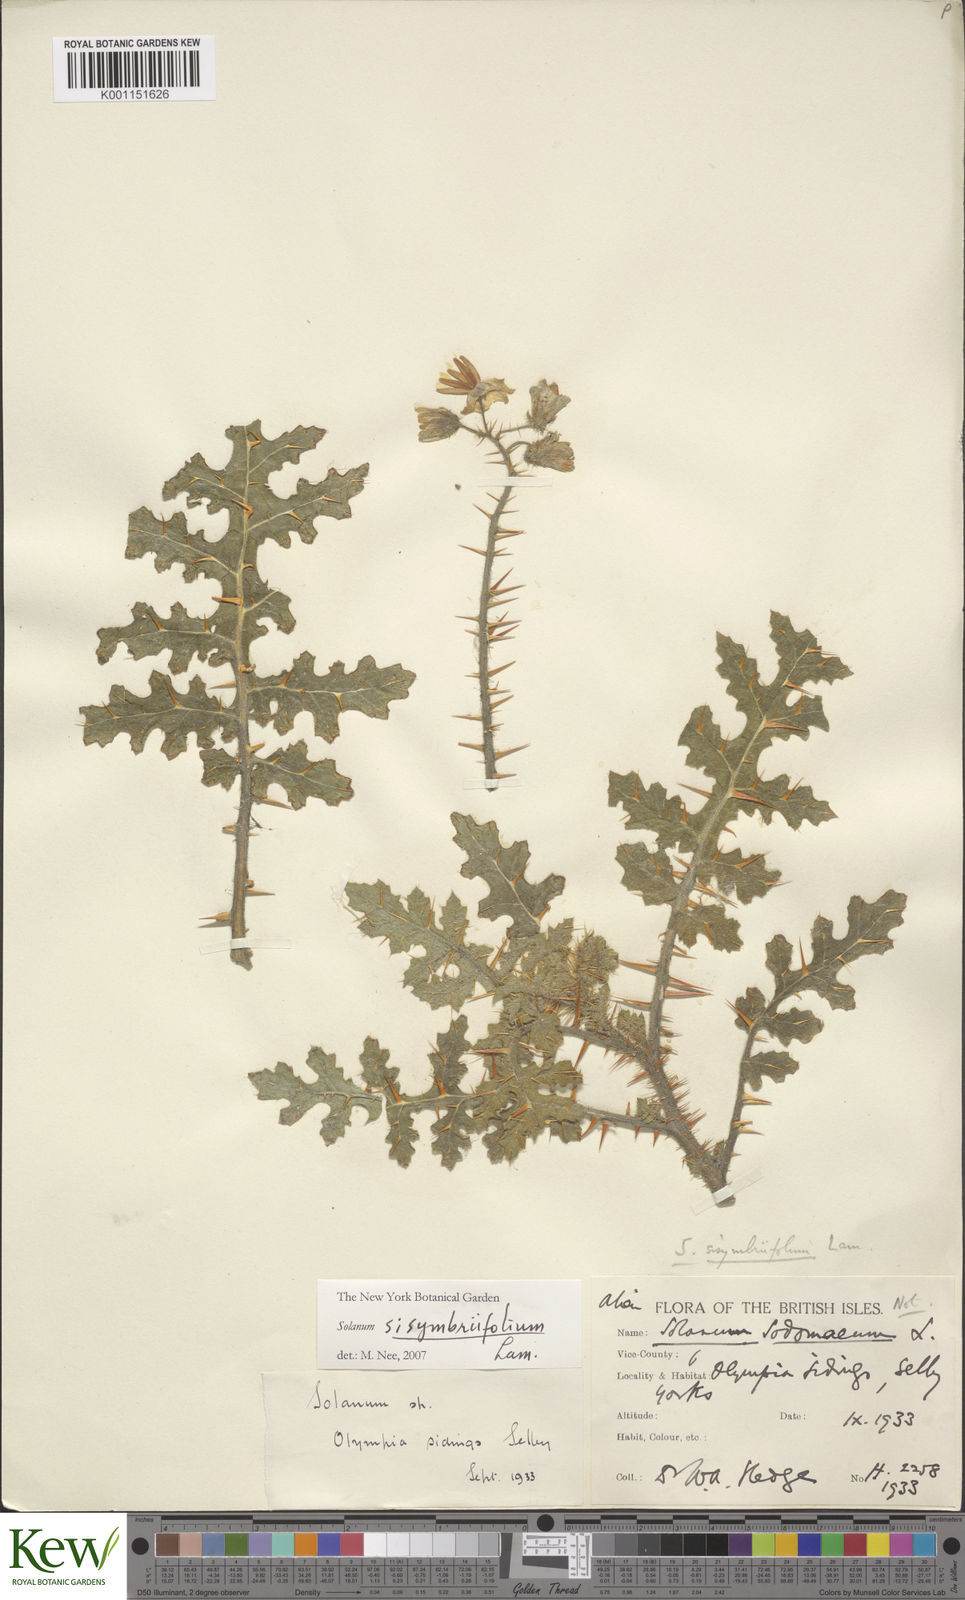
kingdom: Plantae
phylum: Tracheophyta
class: Magnoliopsida
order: Solanales
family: Solanaceae
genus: Solanum
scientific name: Solanum sisymbriifolium
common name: Red buffalo-bur
